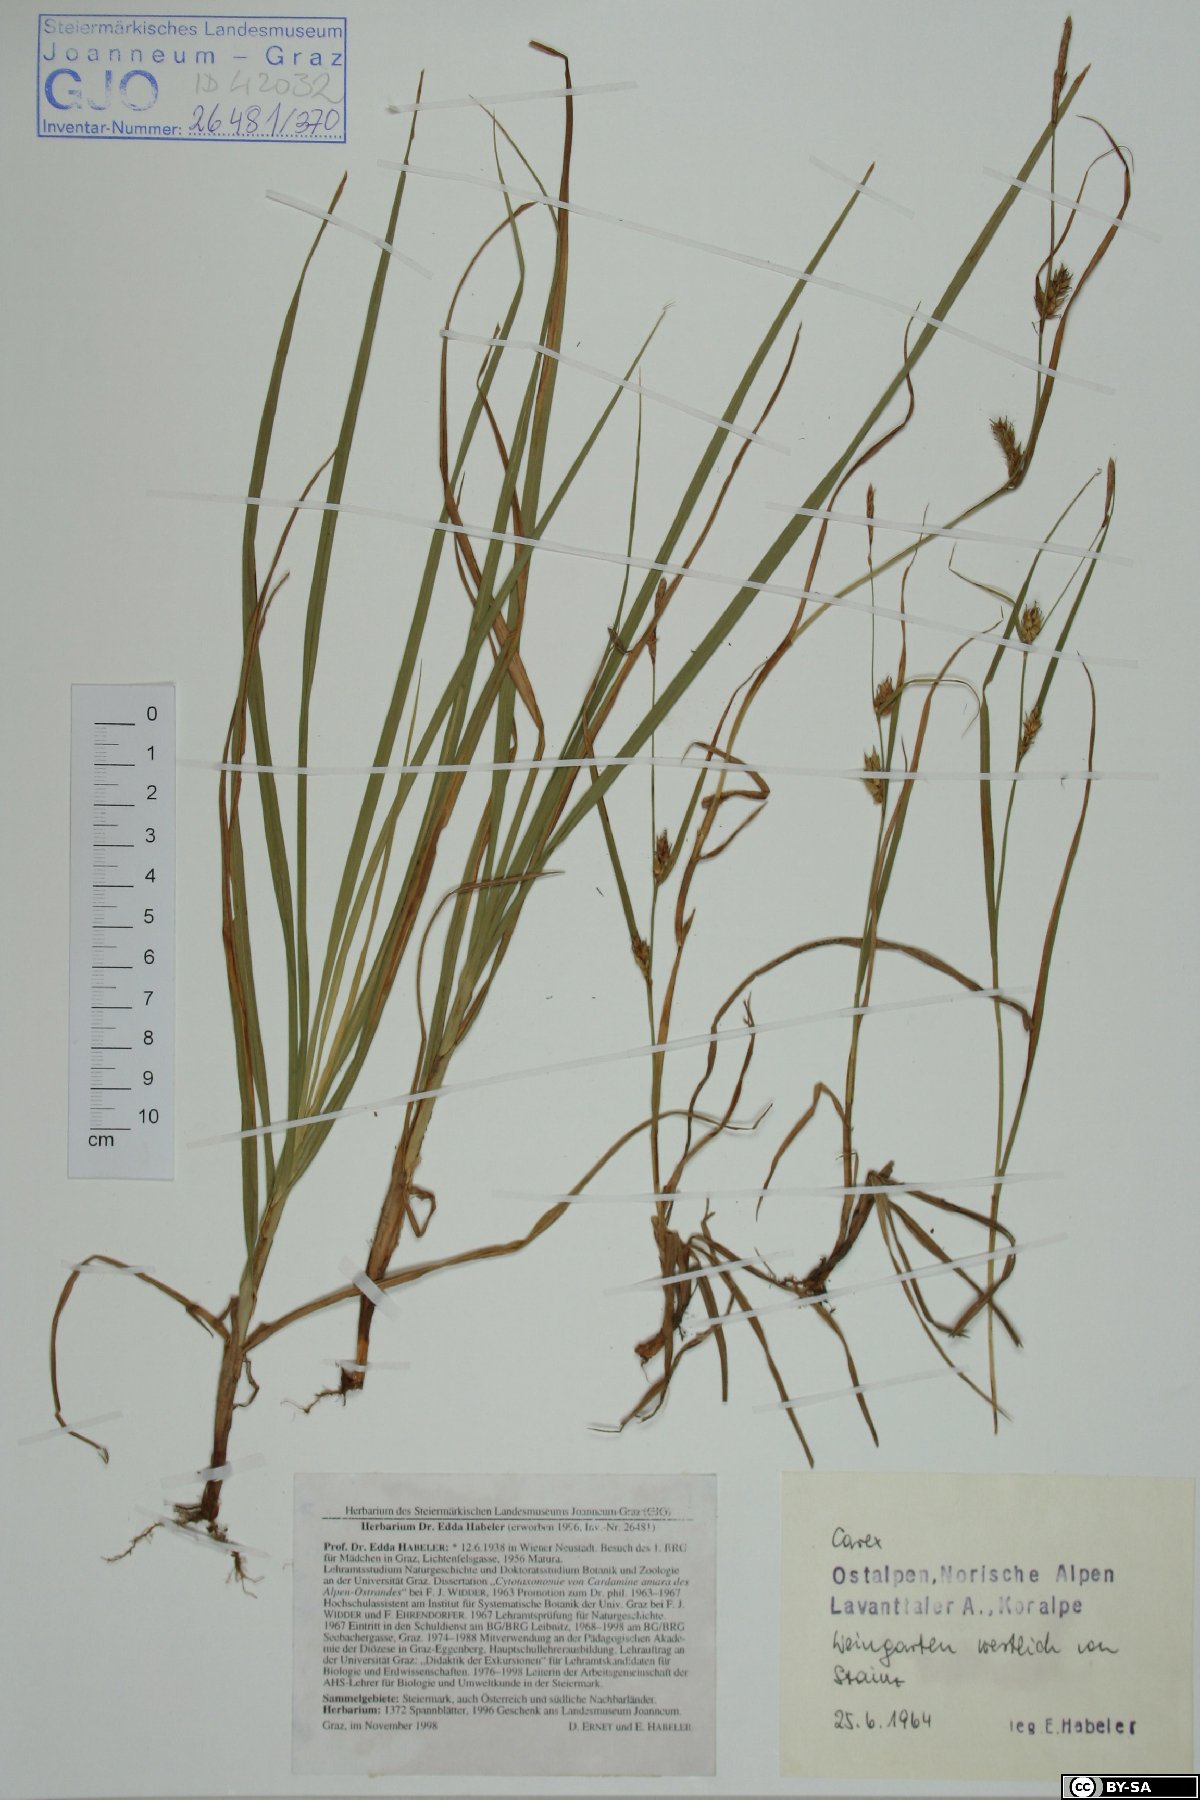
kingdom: Plantae
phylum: Tracheophyta
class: Liliopsida
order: Poales
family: Cyperaceae
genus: Carex
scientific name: Carex
